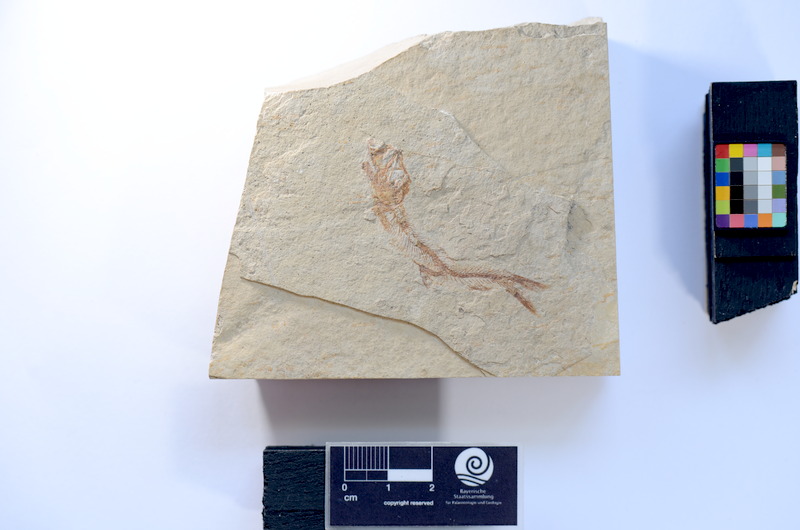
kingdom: Animalia
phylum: Chordata
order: Salmoniformes
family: Orthogonikleithridae
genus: Leptolepides
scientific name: Leptolepides sprattiformis
